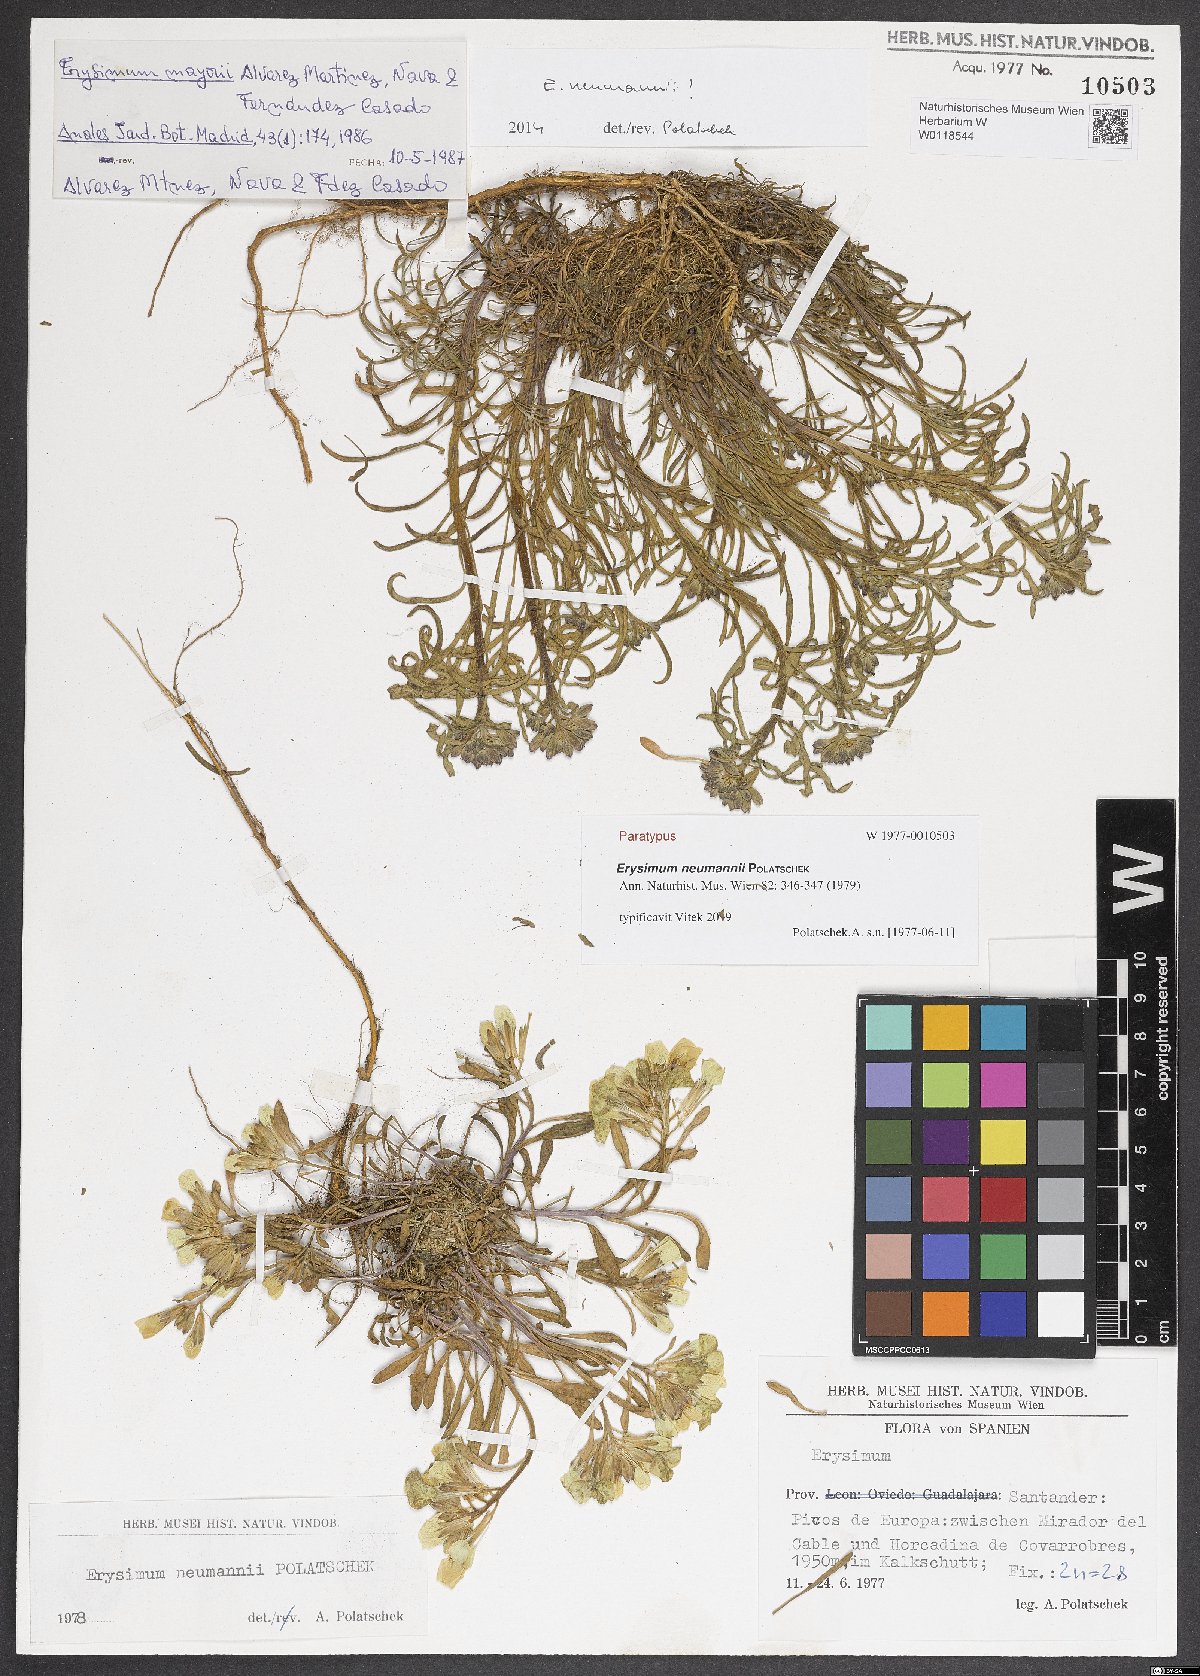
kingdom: Plantae
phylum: Tracheophyta
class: Magnoliopsida
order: Brassicales
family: Brassicaceae
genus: Erysimum
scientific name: Erysimum duriaei
